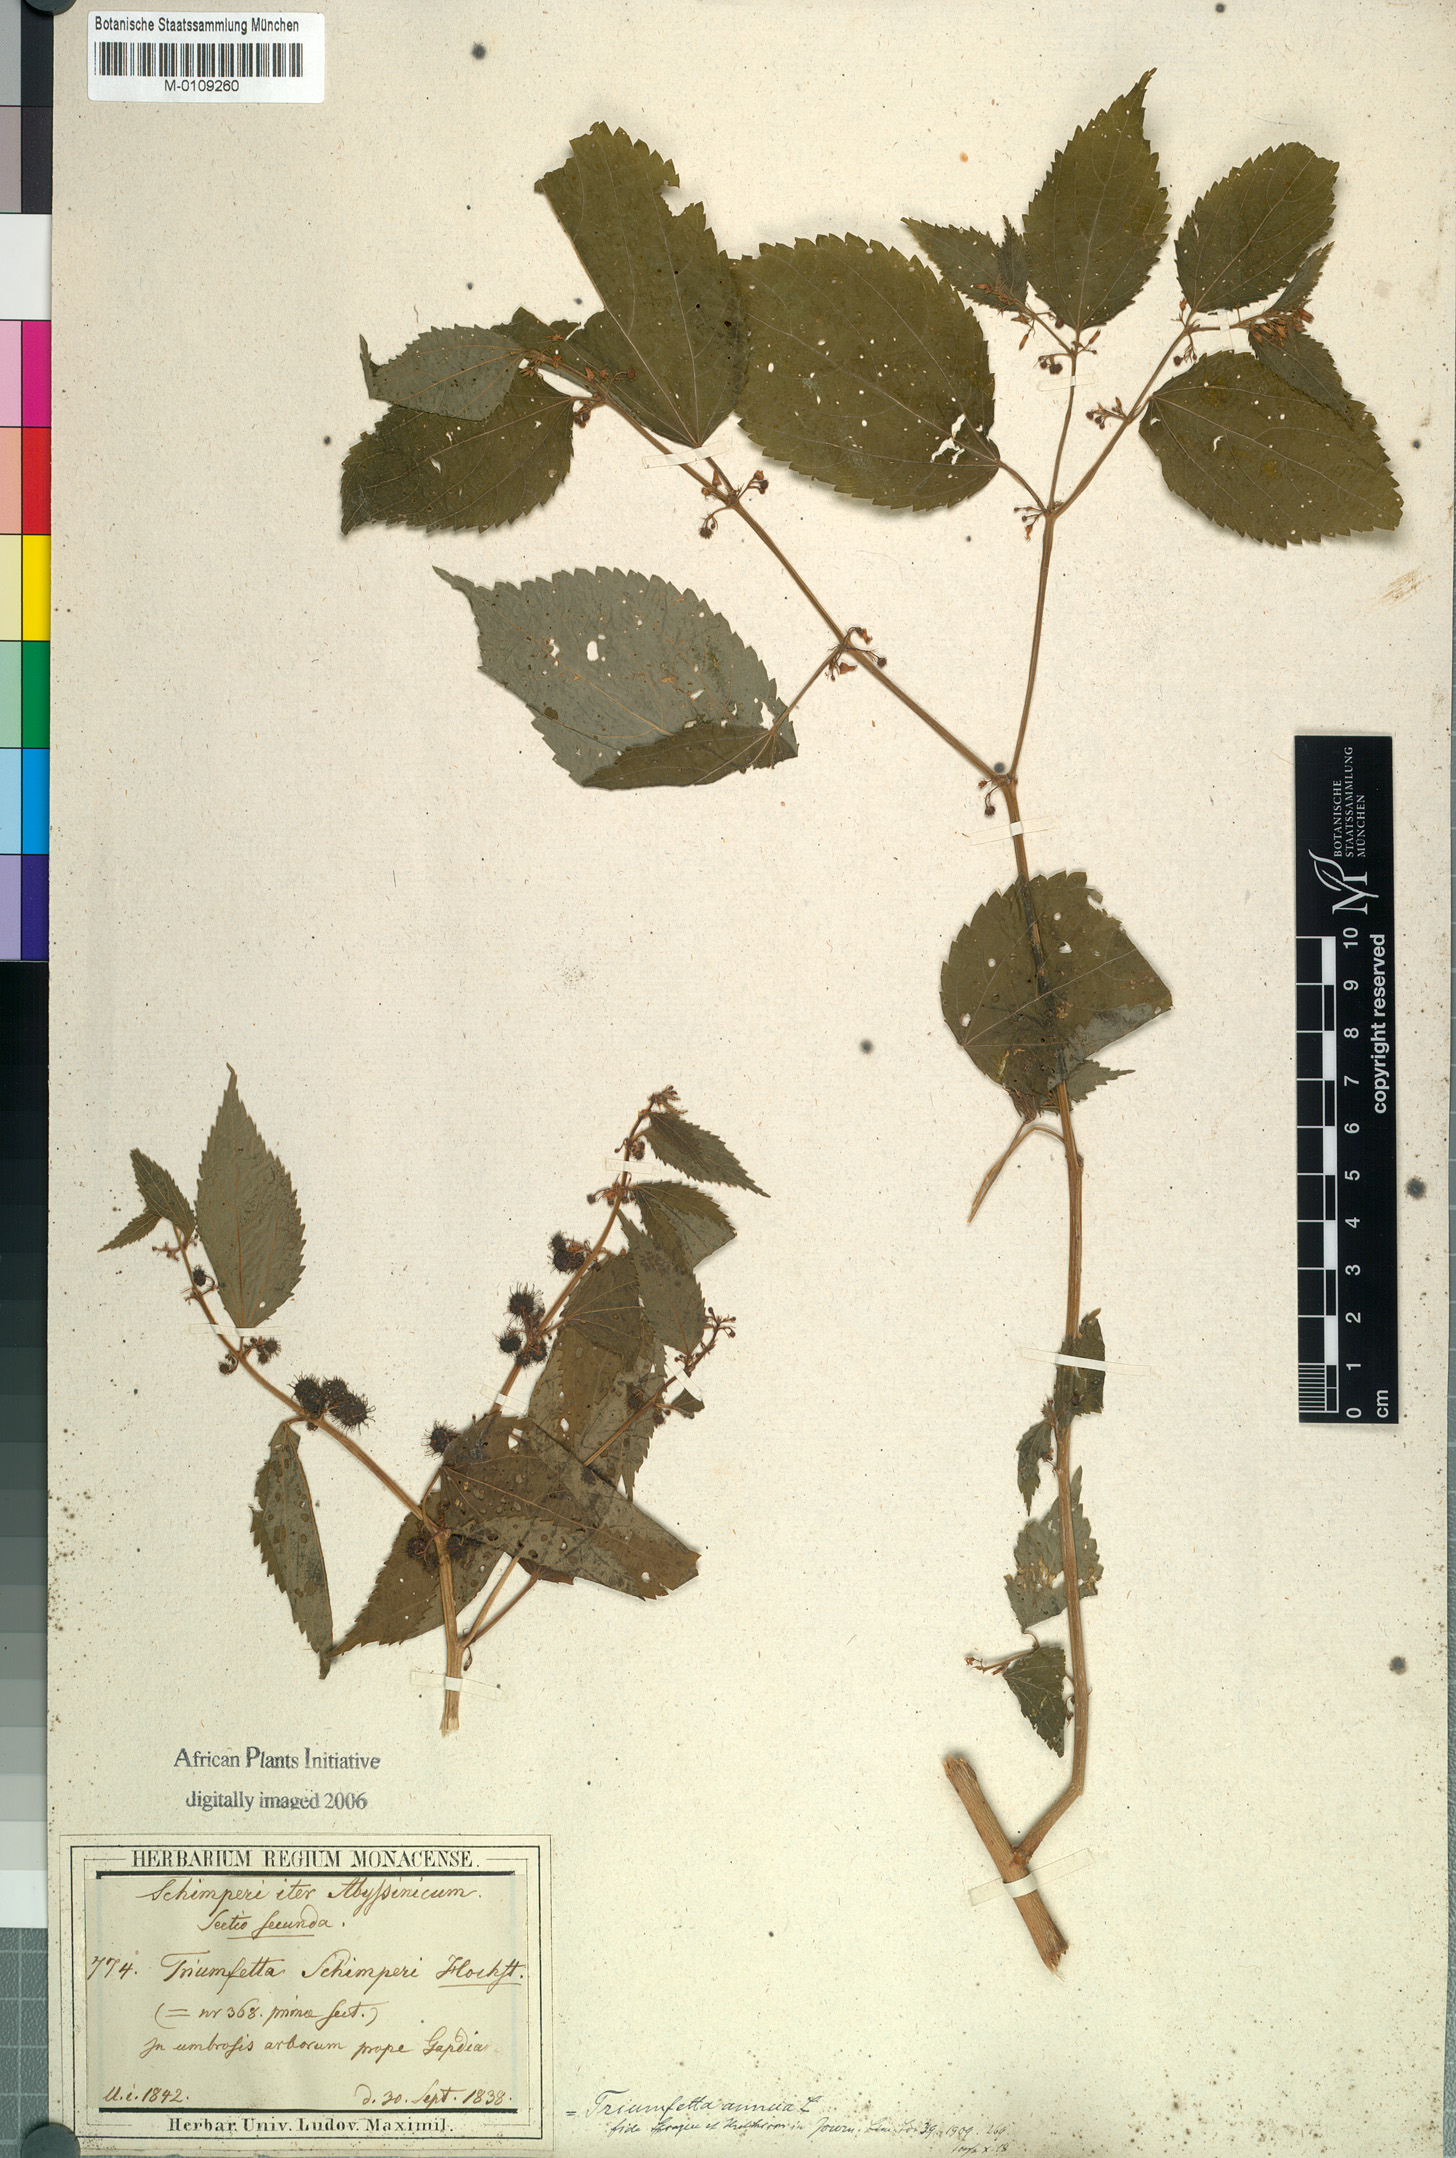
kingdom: Plantae
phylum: Tracheophyta
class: Magnoliopsida
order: Malvales
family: Malvaceae
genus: Triumfetta
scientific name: Triumfetta annua
